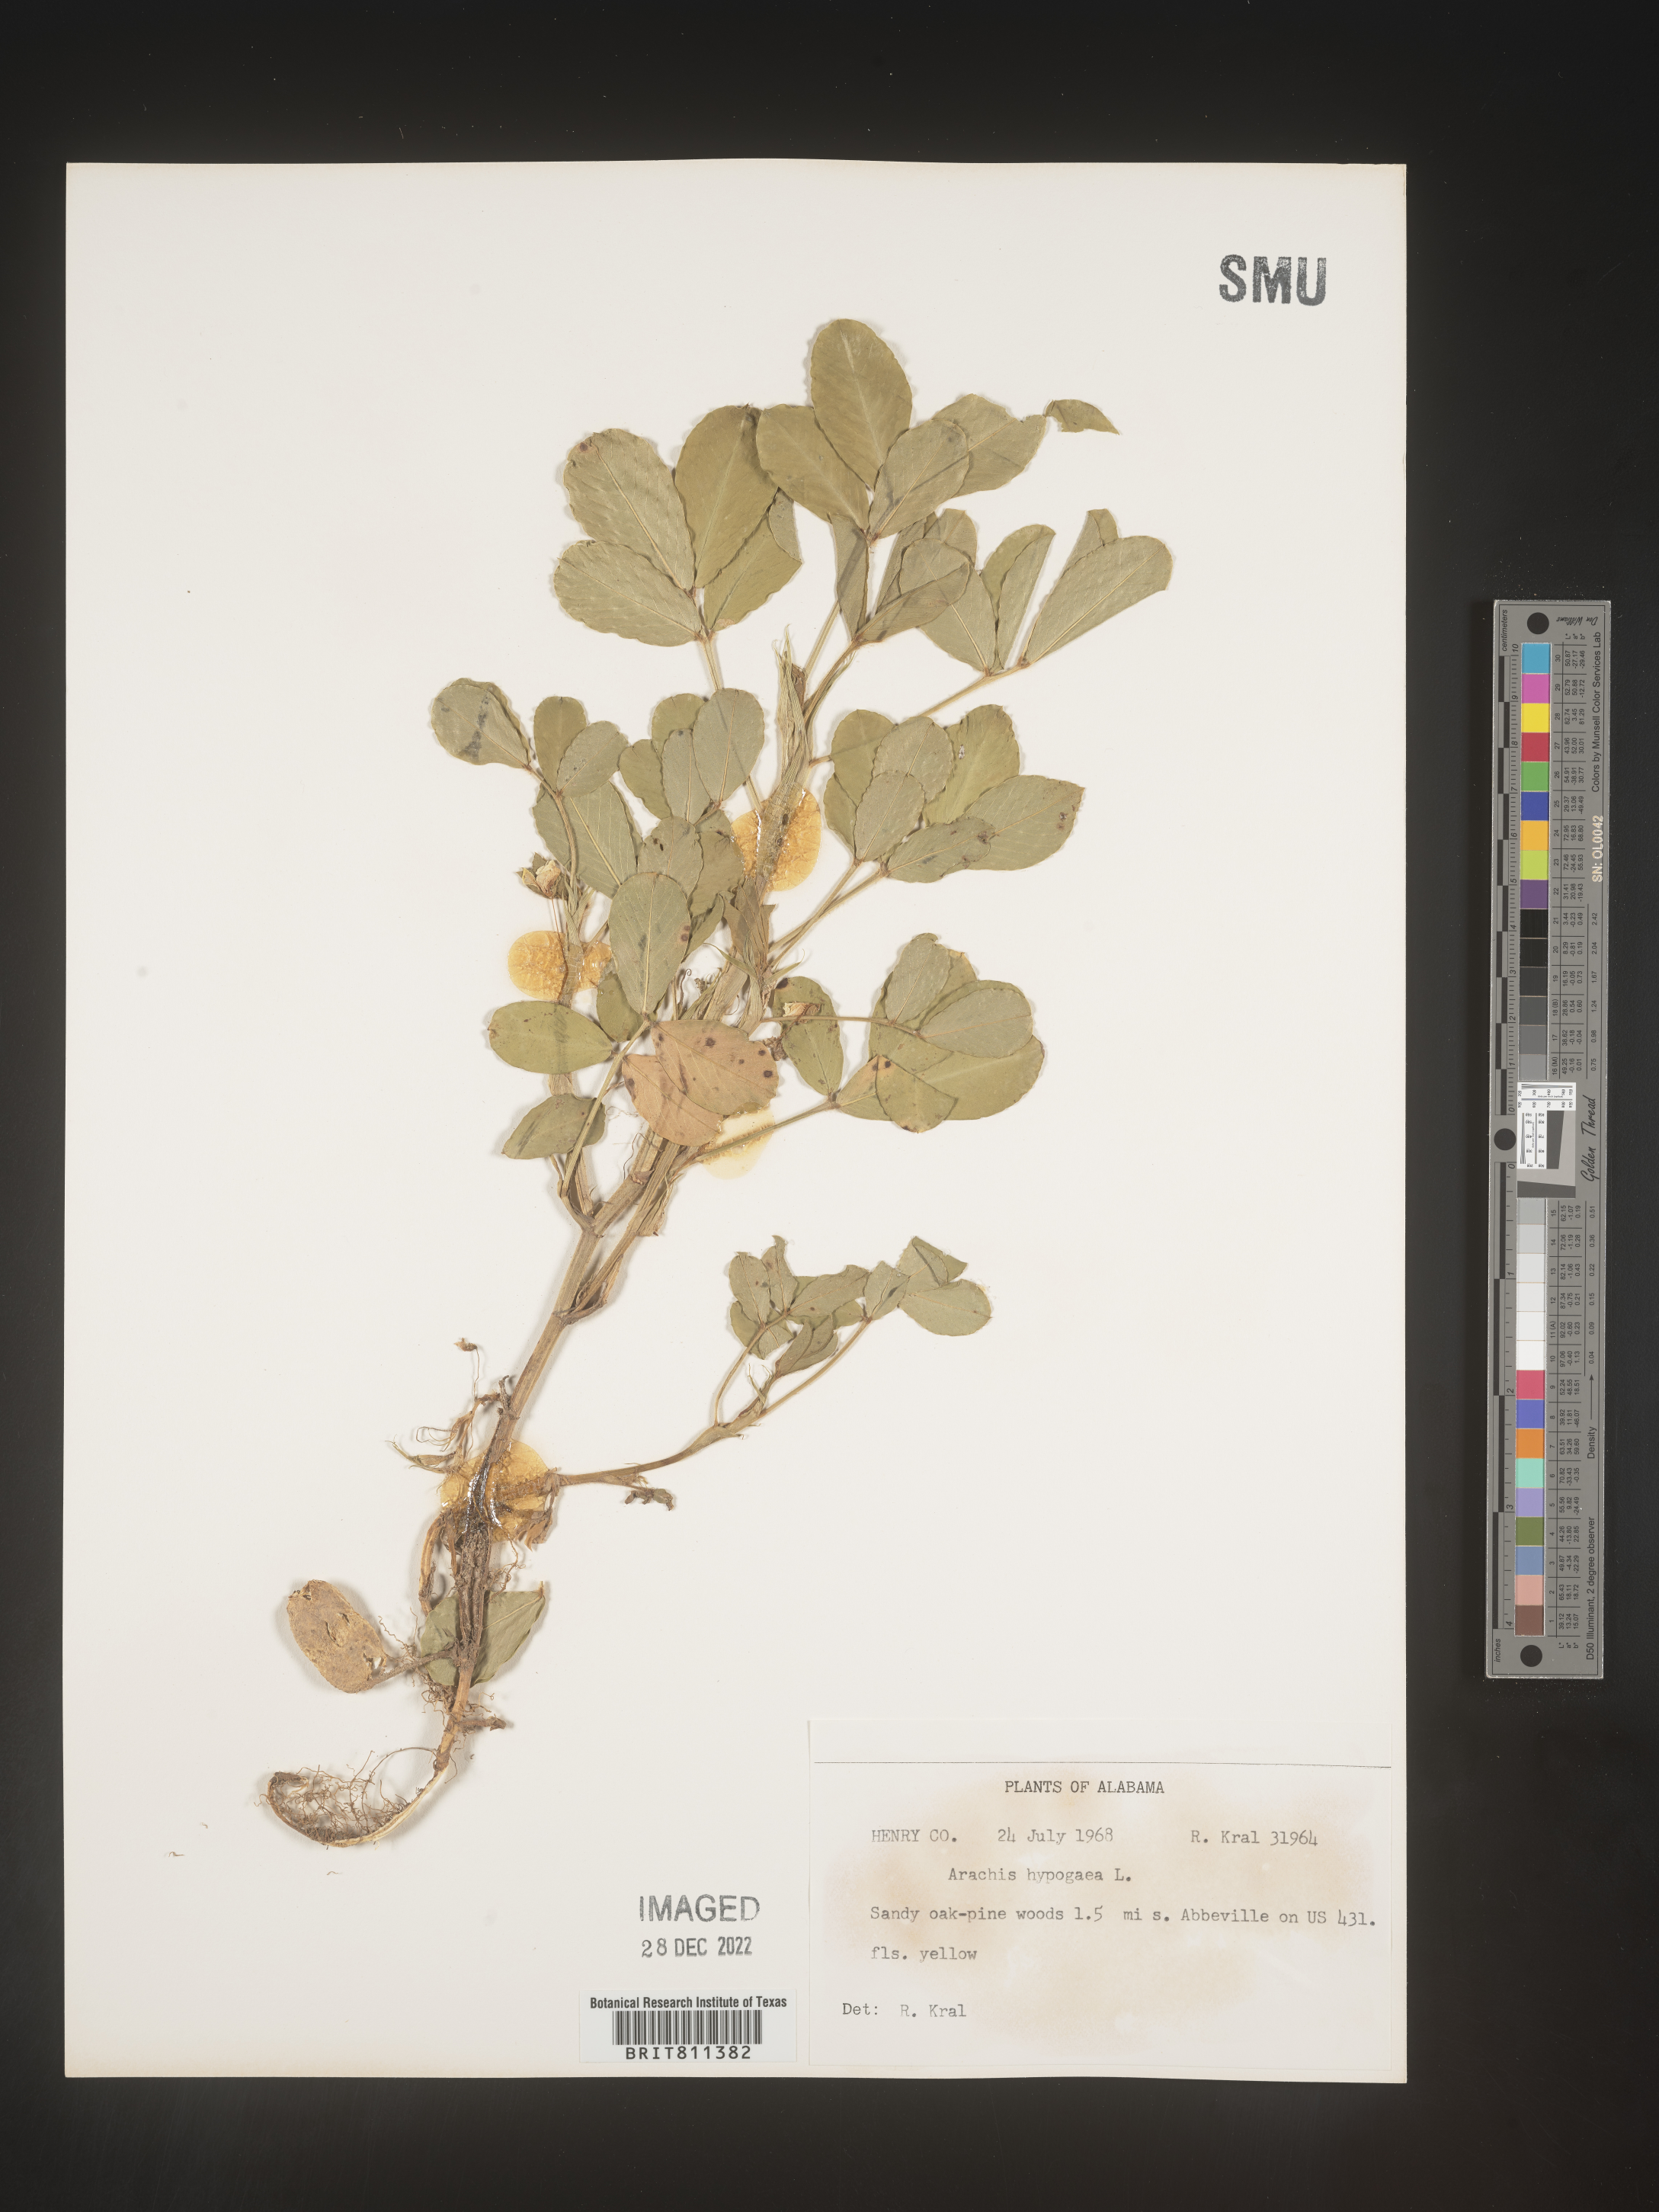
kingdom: Plantae
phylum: Tracheophyta
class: Magnoliopsida
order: Fabales
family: Fabaceae
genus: Arachis
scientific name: Arachis
